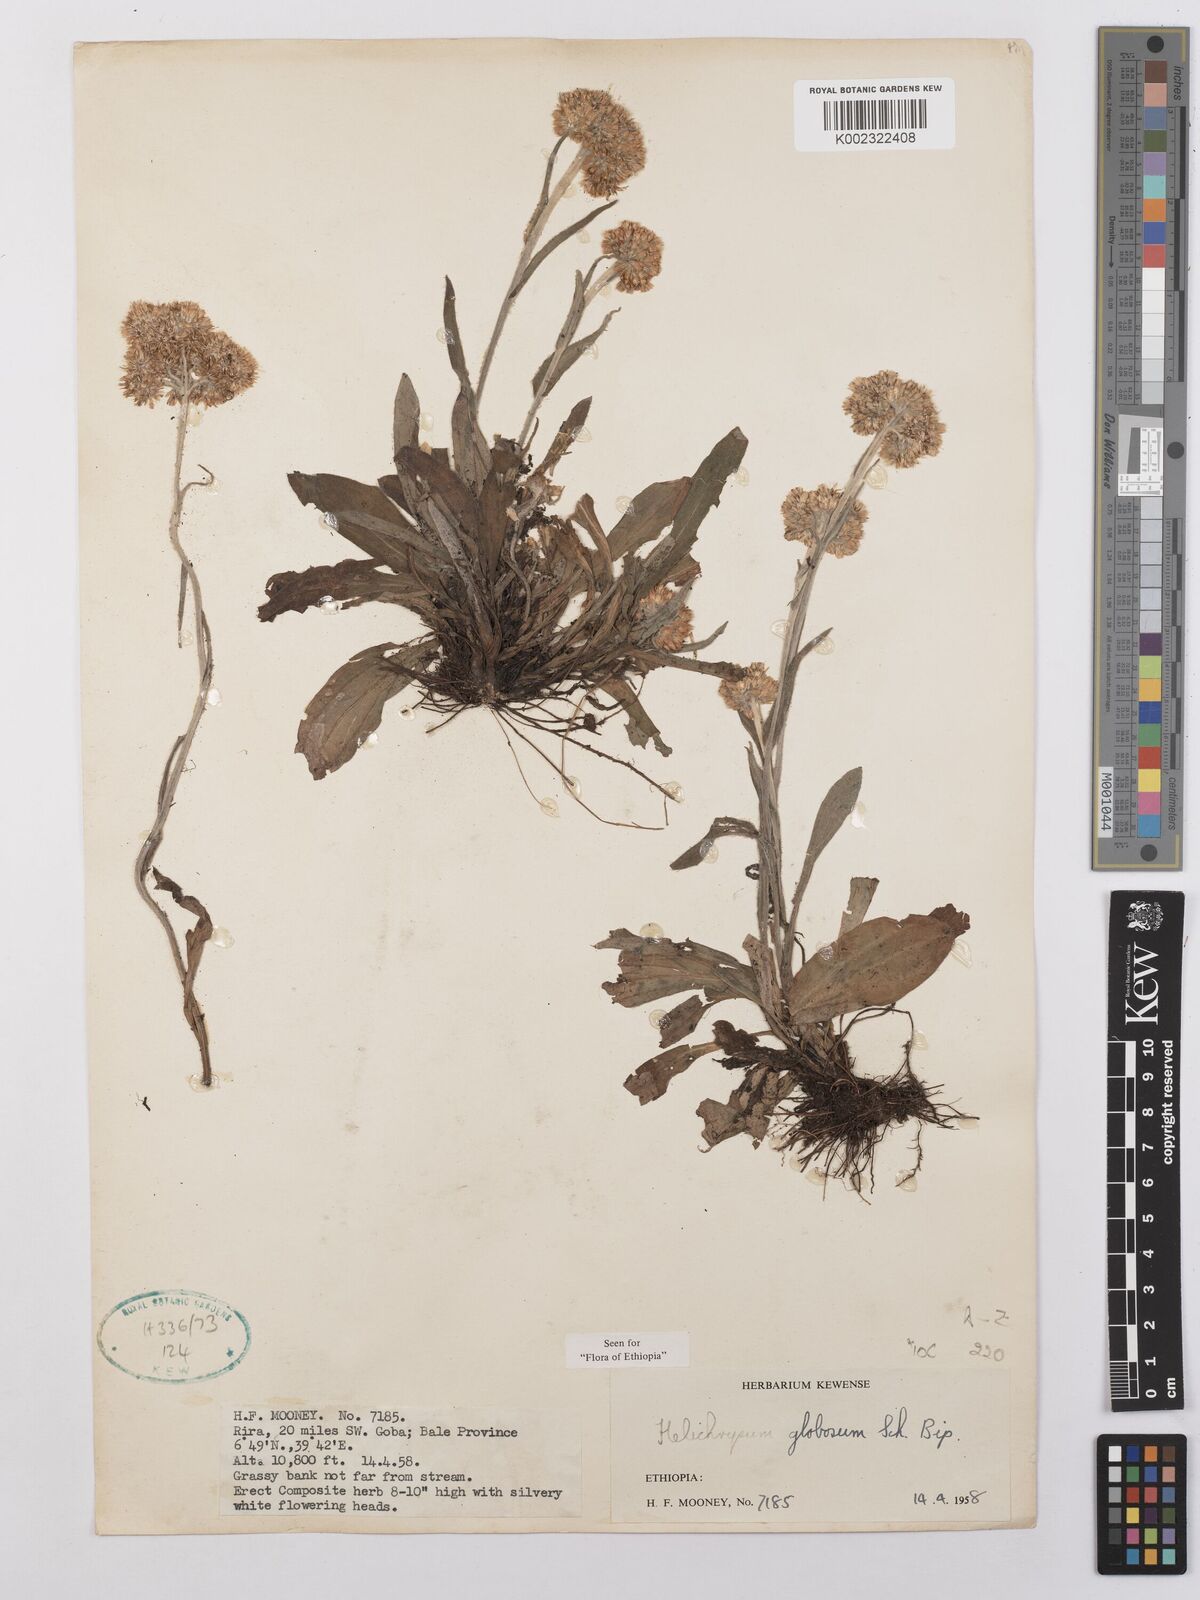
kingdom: Plantae
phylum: Tracheophyta
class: Magnoliopsida
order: Asterales
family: Asteraceae
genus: Helichrysum
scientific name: Helichrysum globosum
